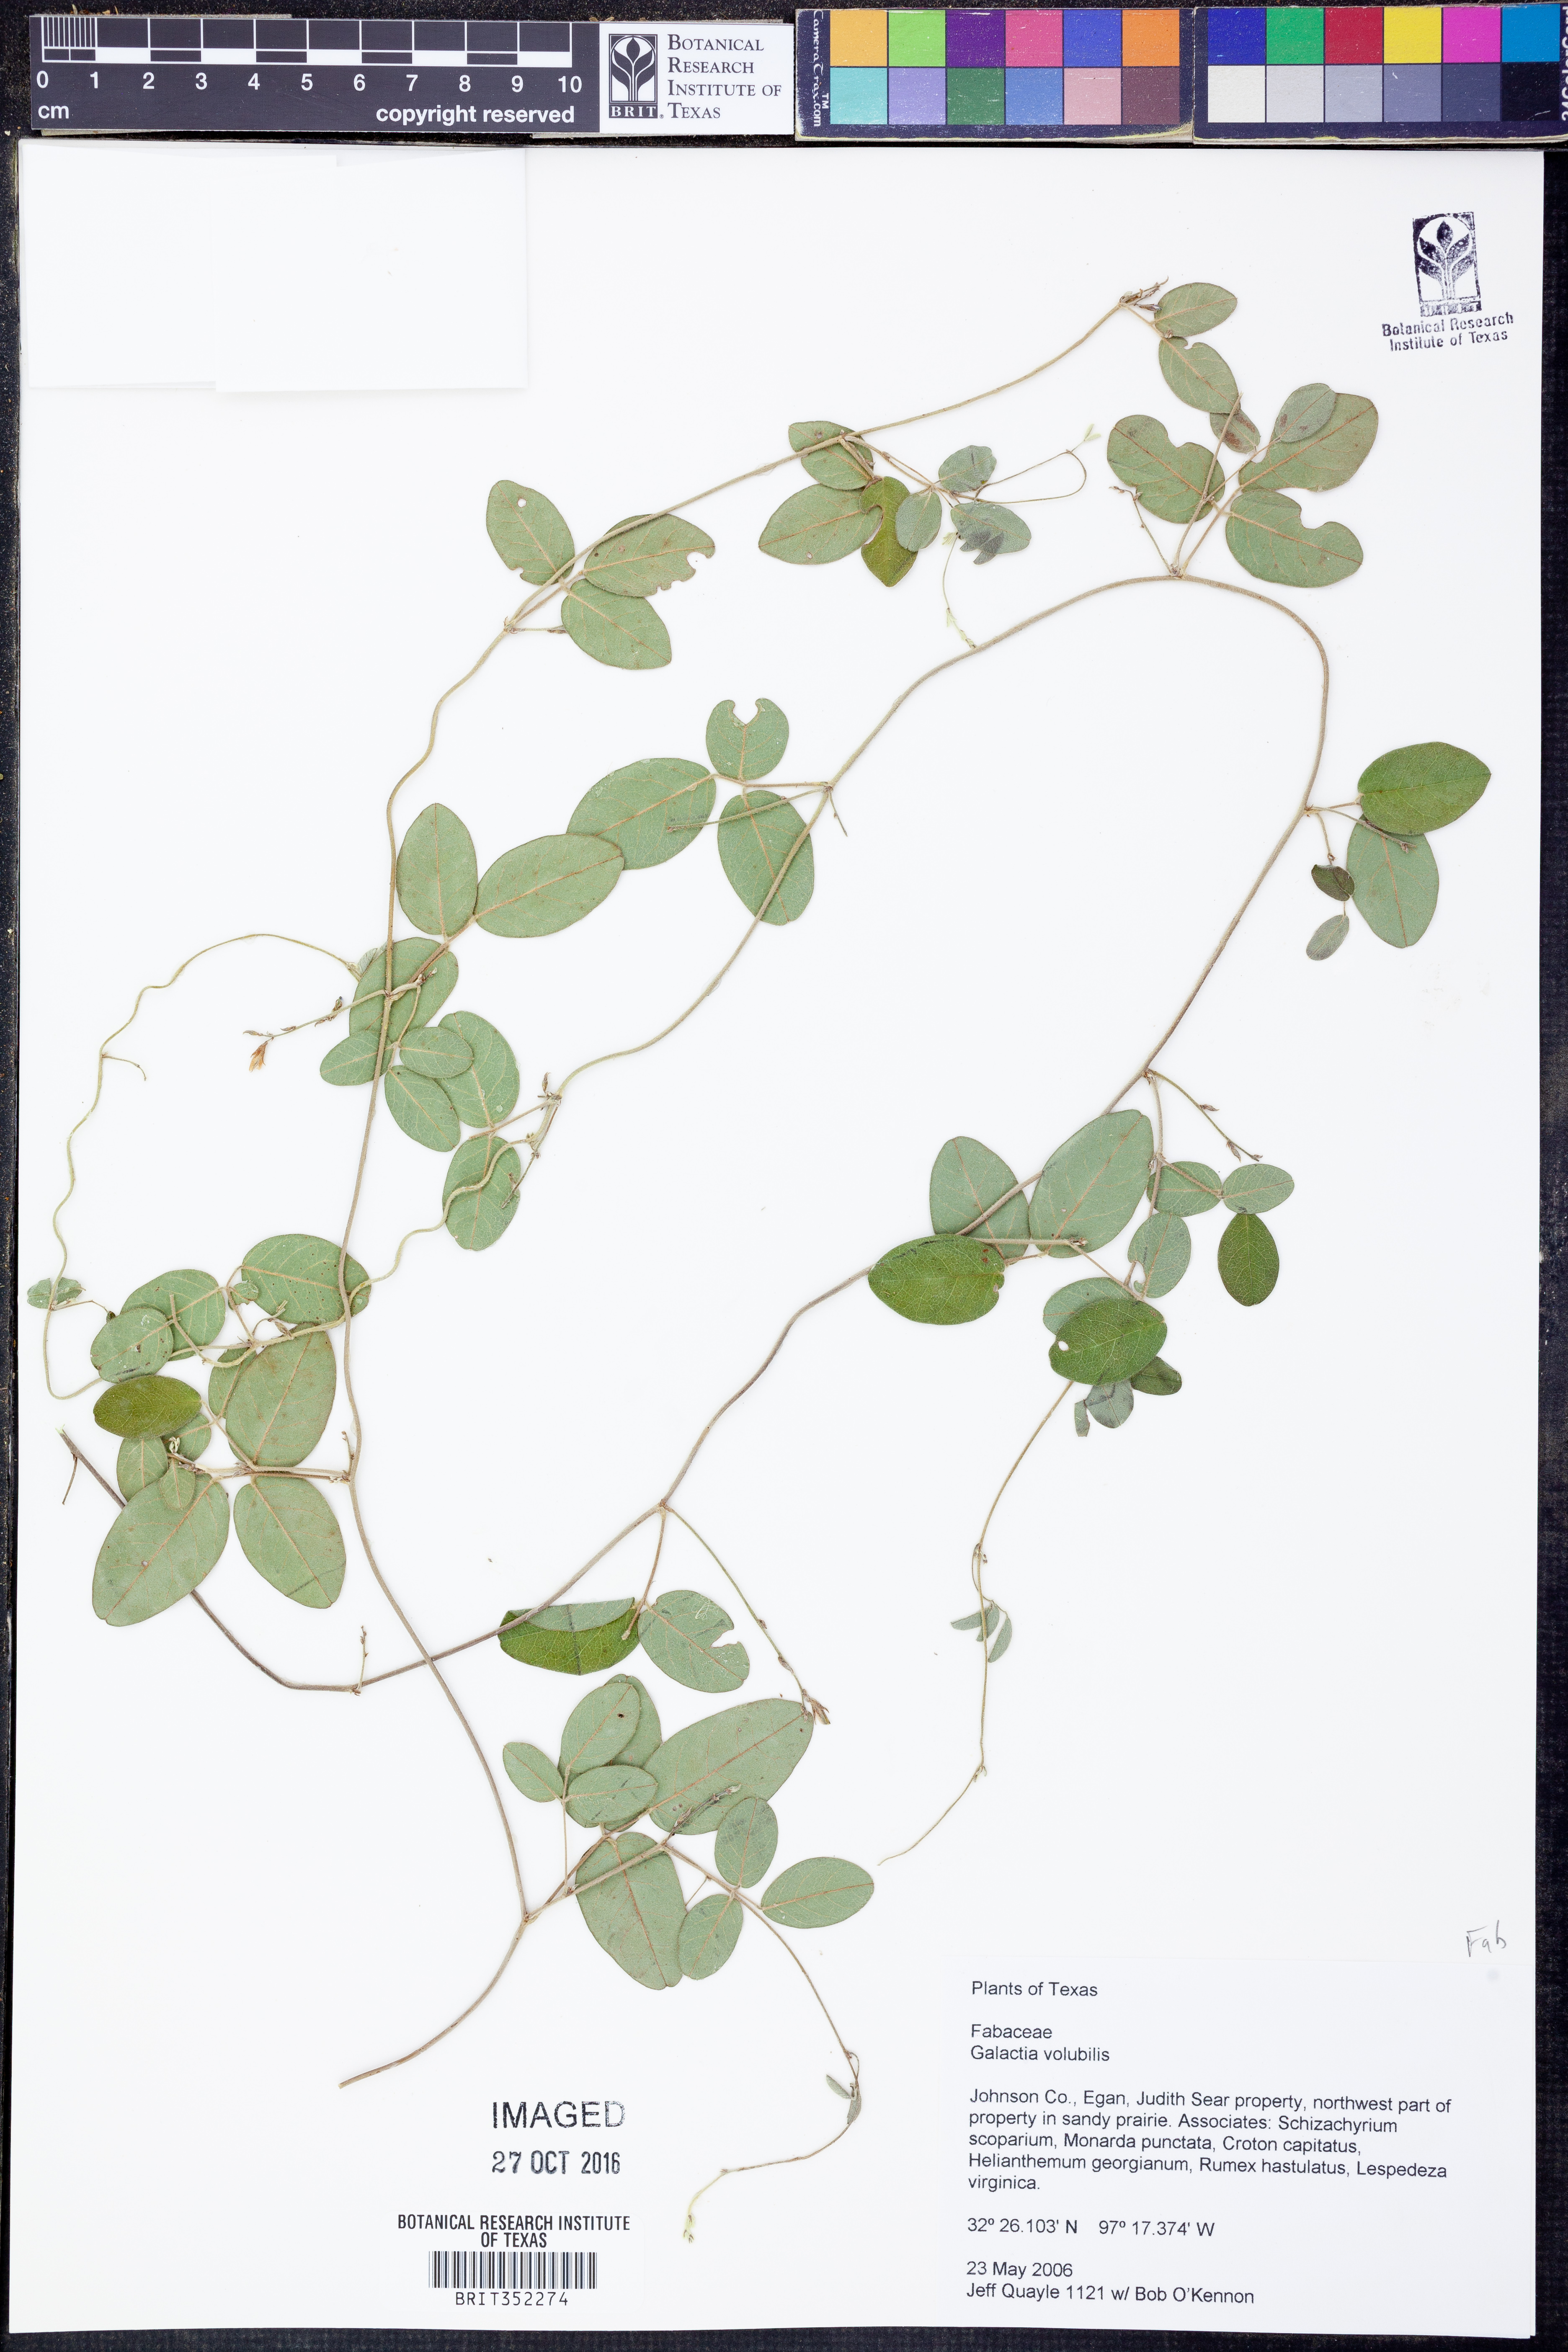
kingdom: Plantae
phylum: Tracheophyta
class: Magnoliopsida
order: Fabales
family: Fabaceae
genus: Galactia
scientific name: Galactia volubilis
